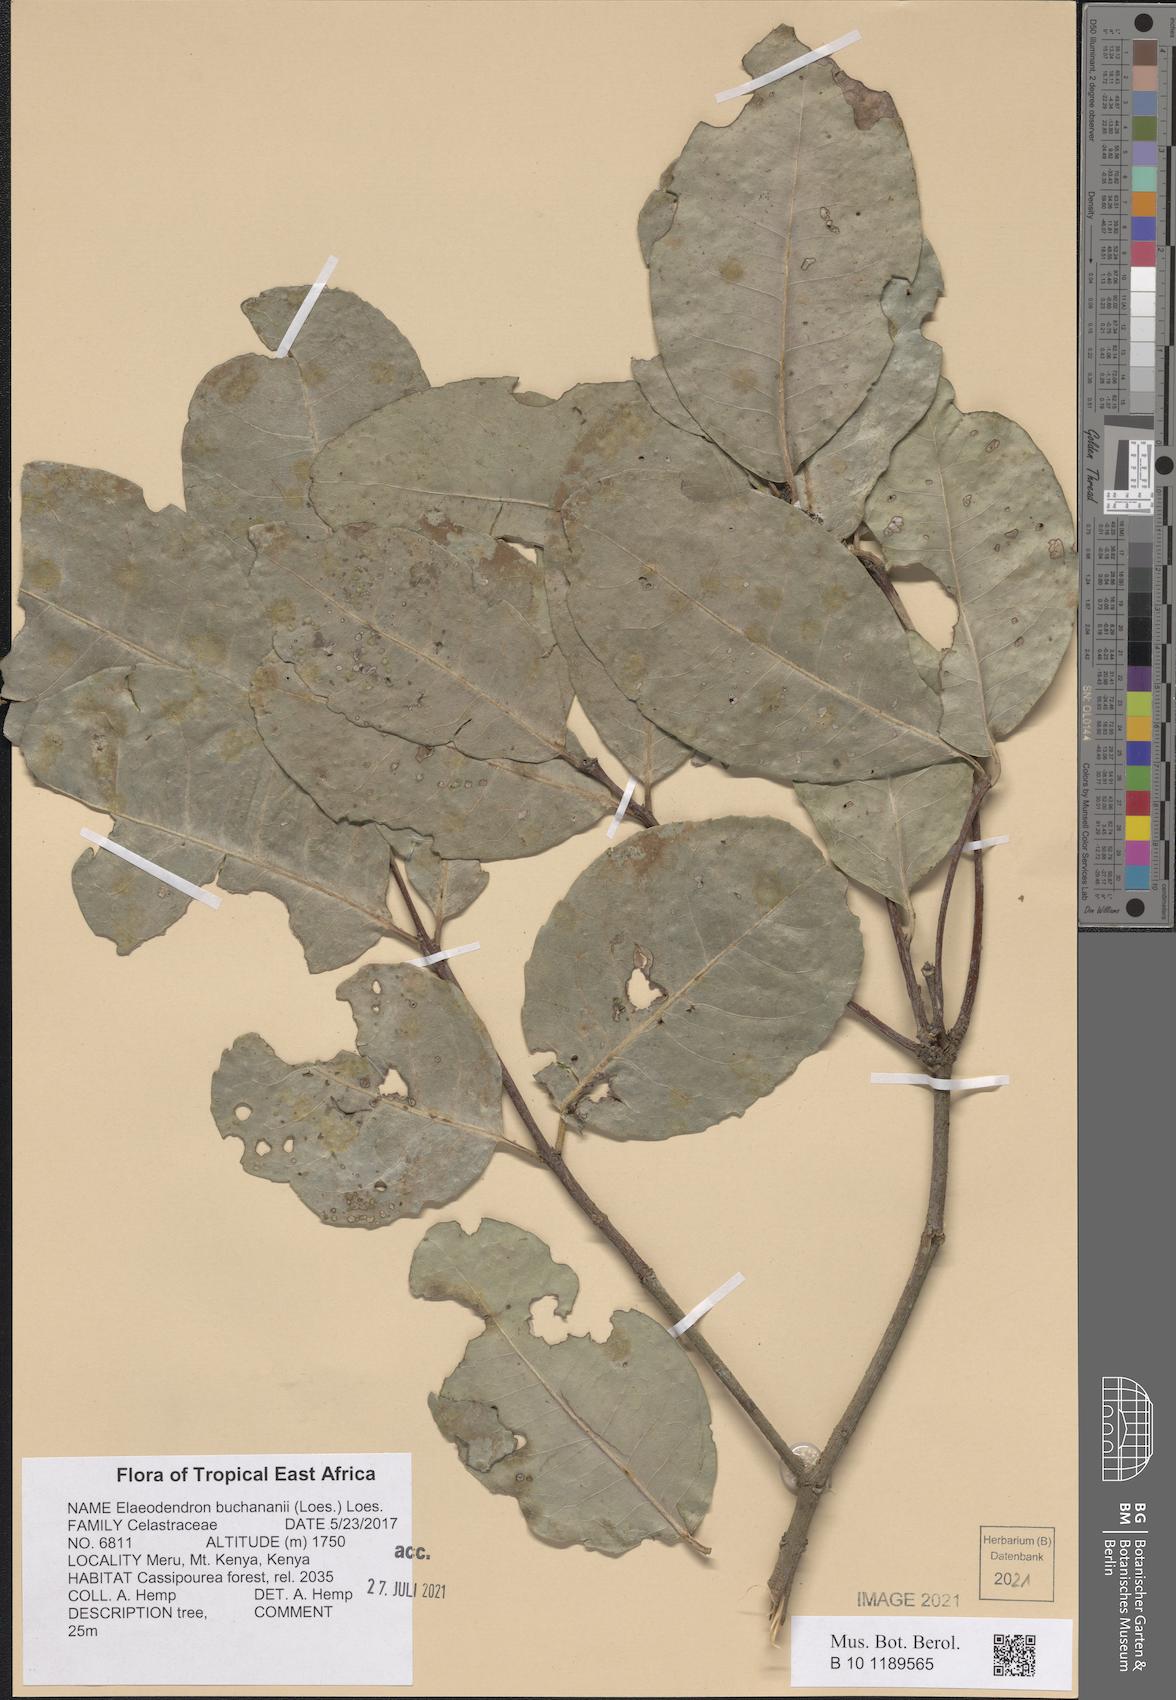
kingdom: Plantae
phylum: Tracheophyta
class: Magnoliopsida
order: Celastrales
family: Celastraceae
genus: Elaeodendron
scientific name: Elaeodendron buchananii
